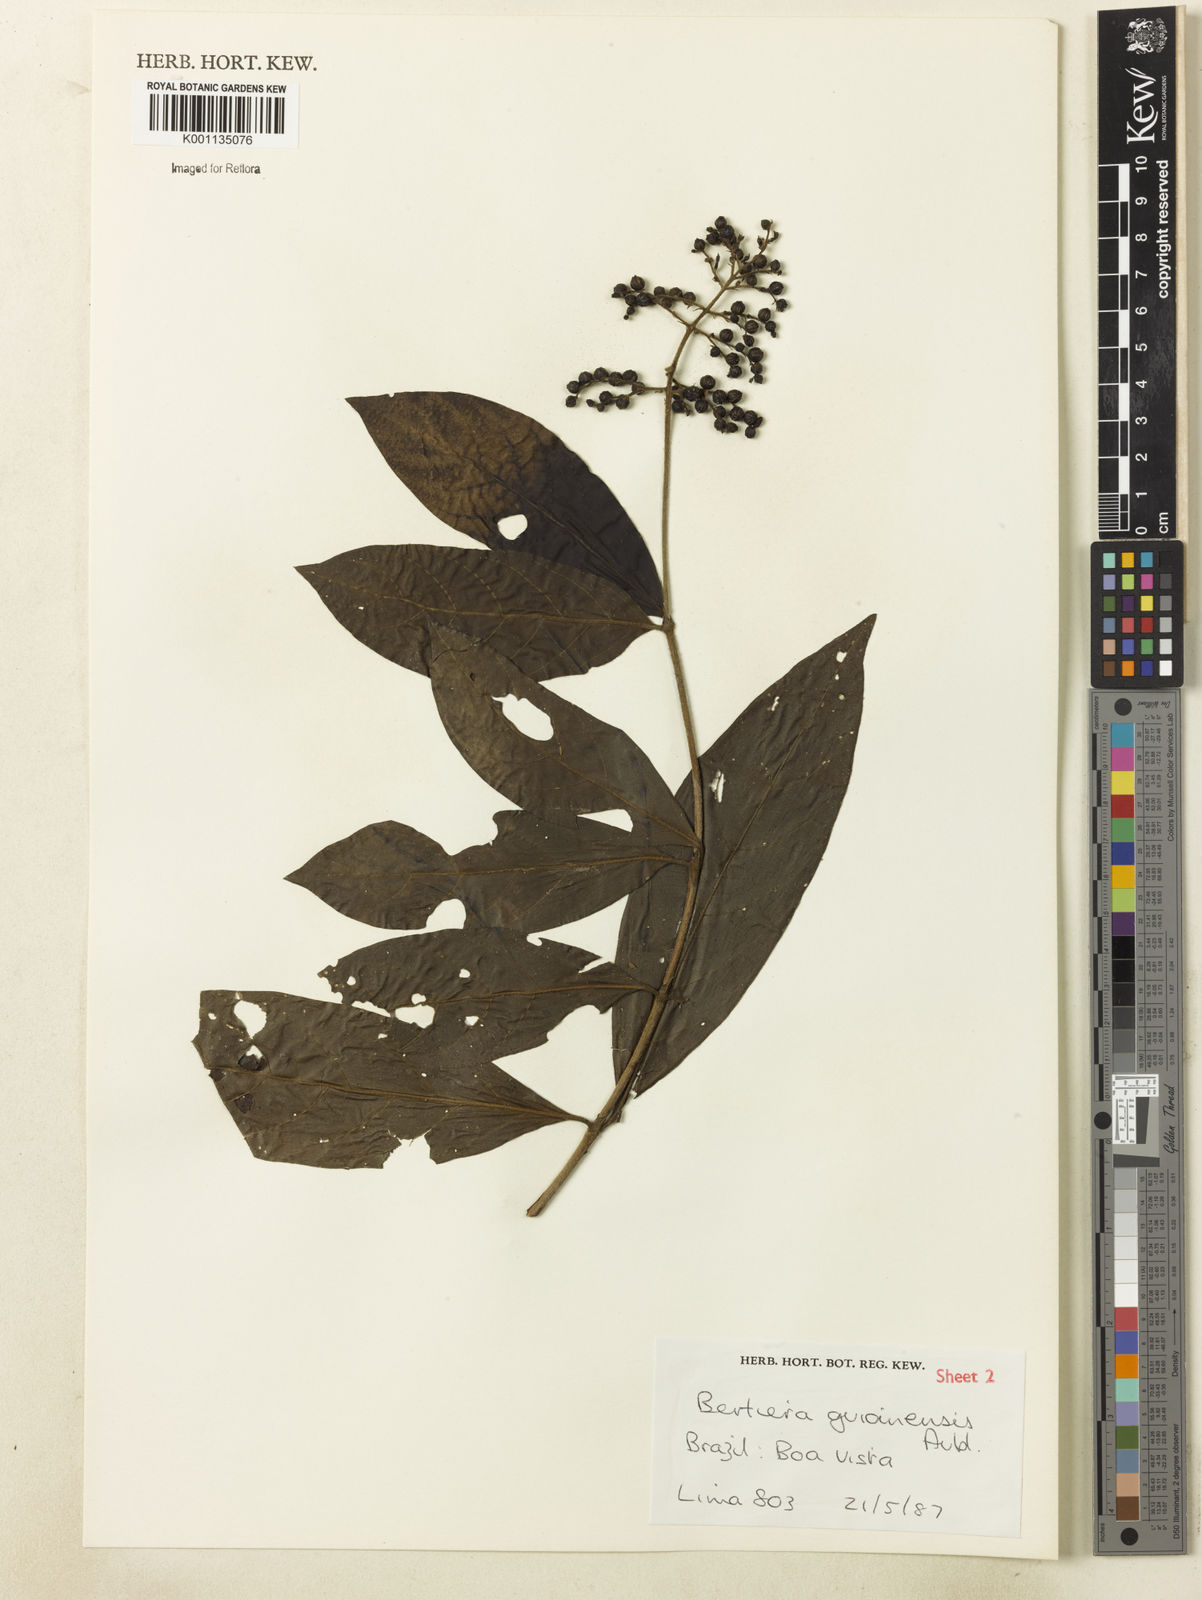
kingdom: Plantae
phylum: Tracheophyta
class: Magnoliopsida
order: Gentianales
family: Rubiaceae
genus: Bertiera
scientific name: Bertiera guianensis
